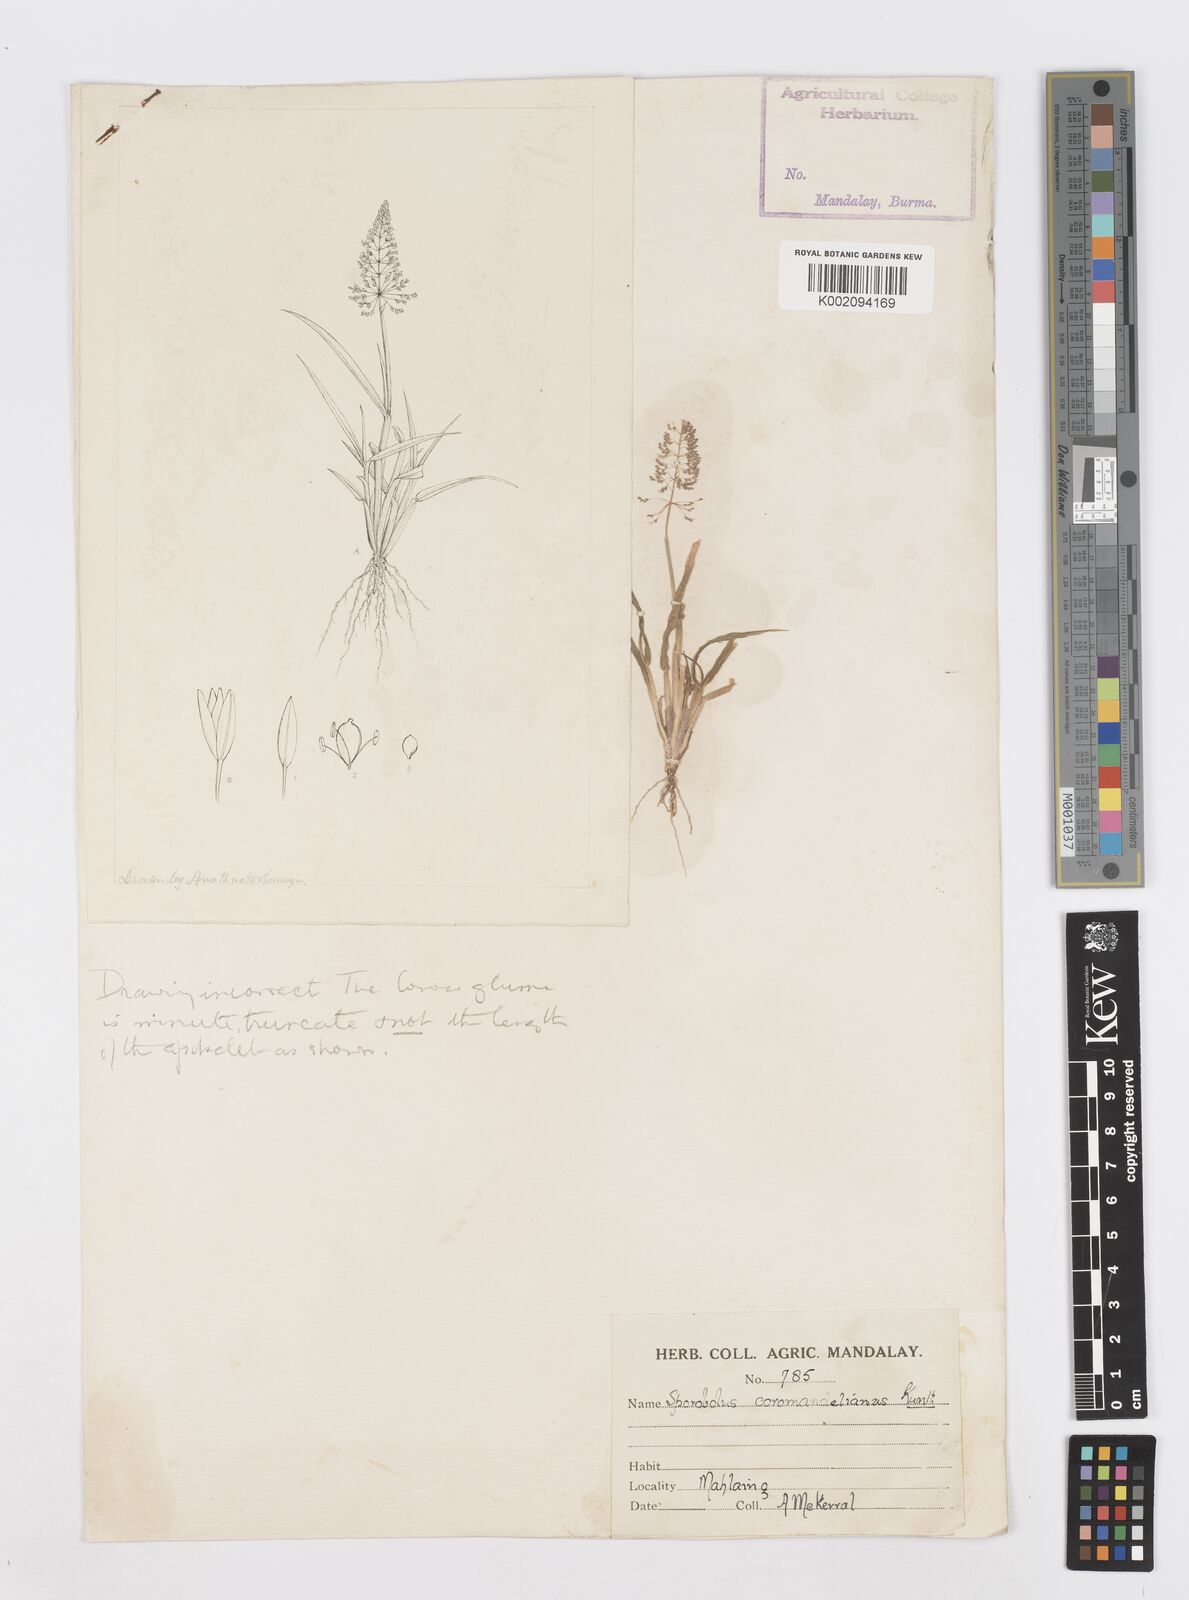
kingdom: Plantae
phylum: Tracheophyta
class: Liliopsida
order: Poales
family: Poaceae
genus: Sporobolus
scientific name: Sporobolus coromandelianus
